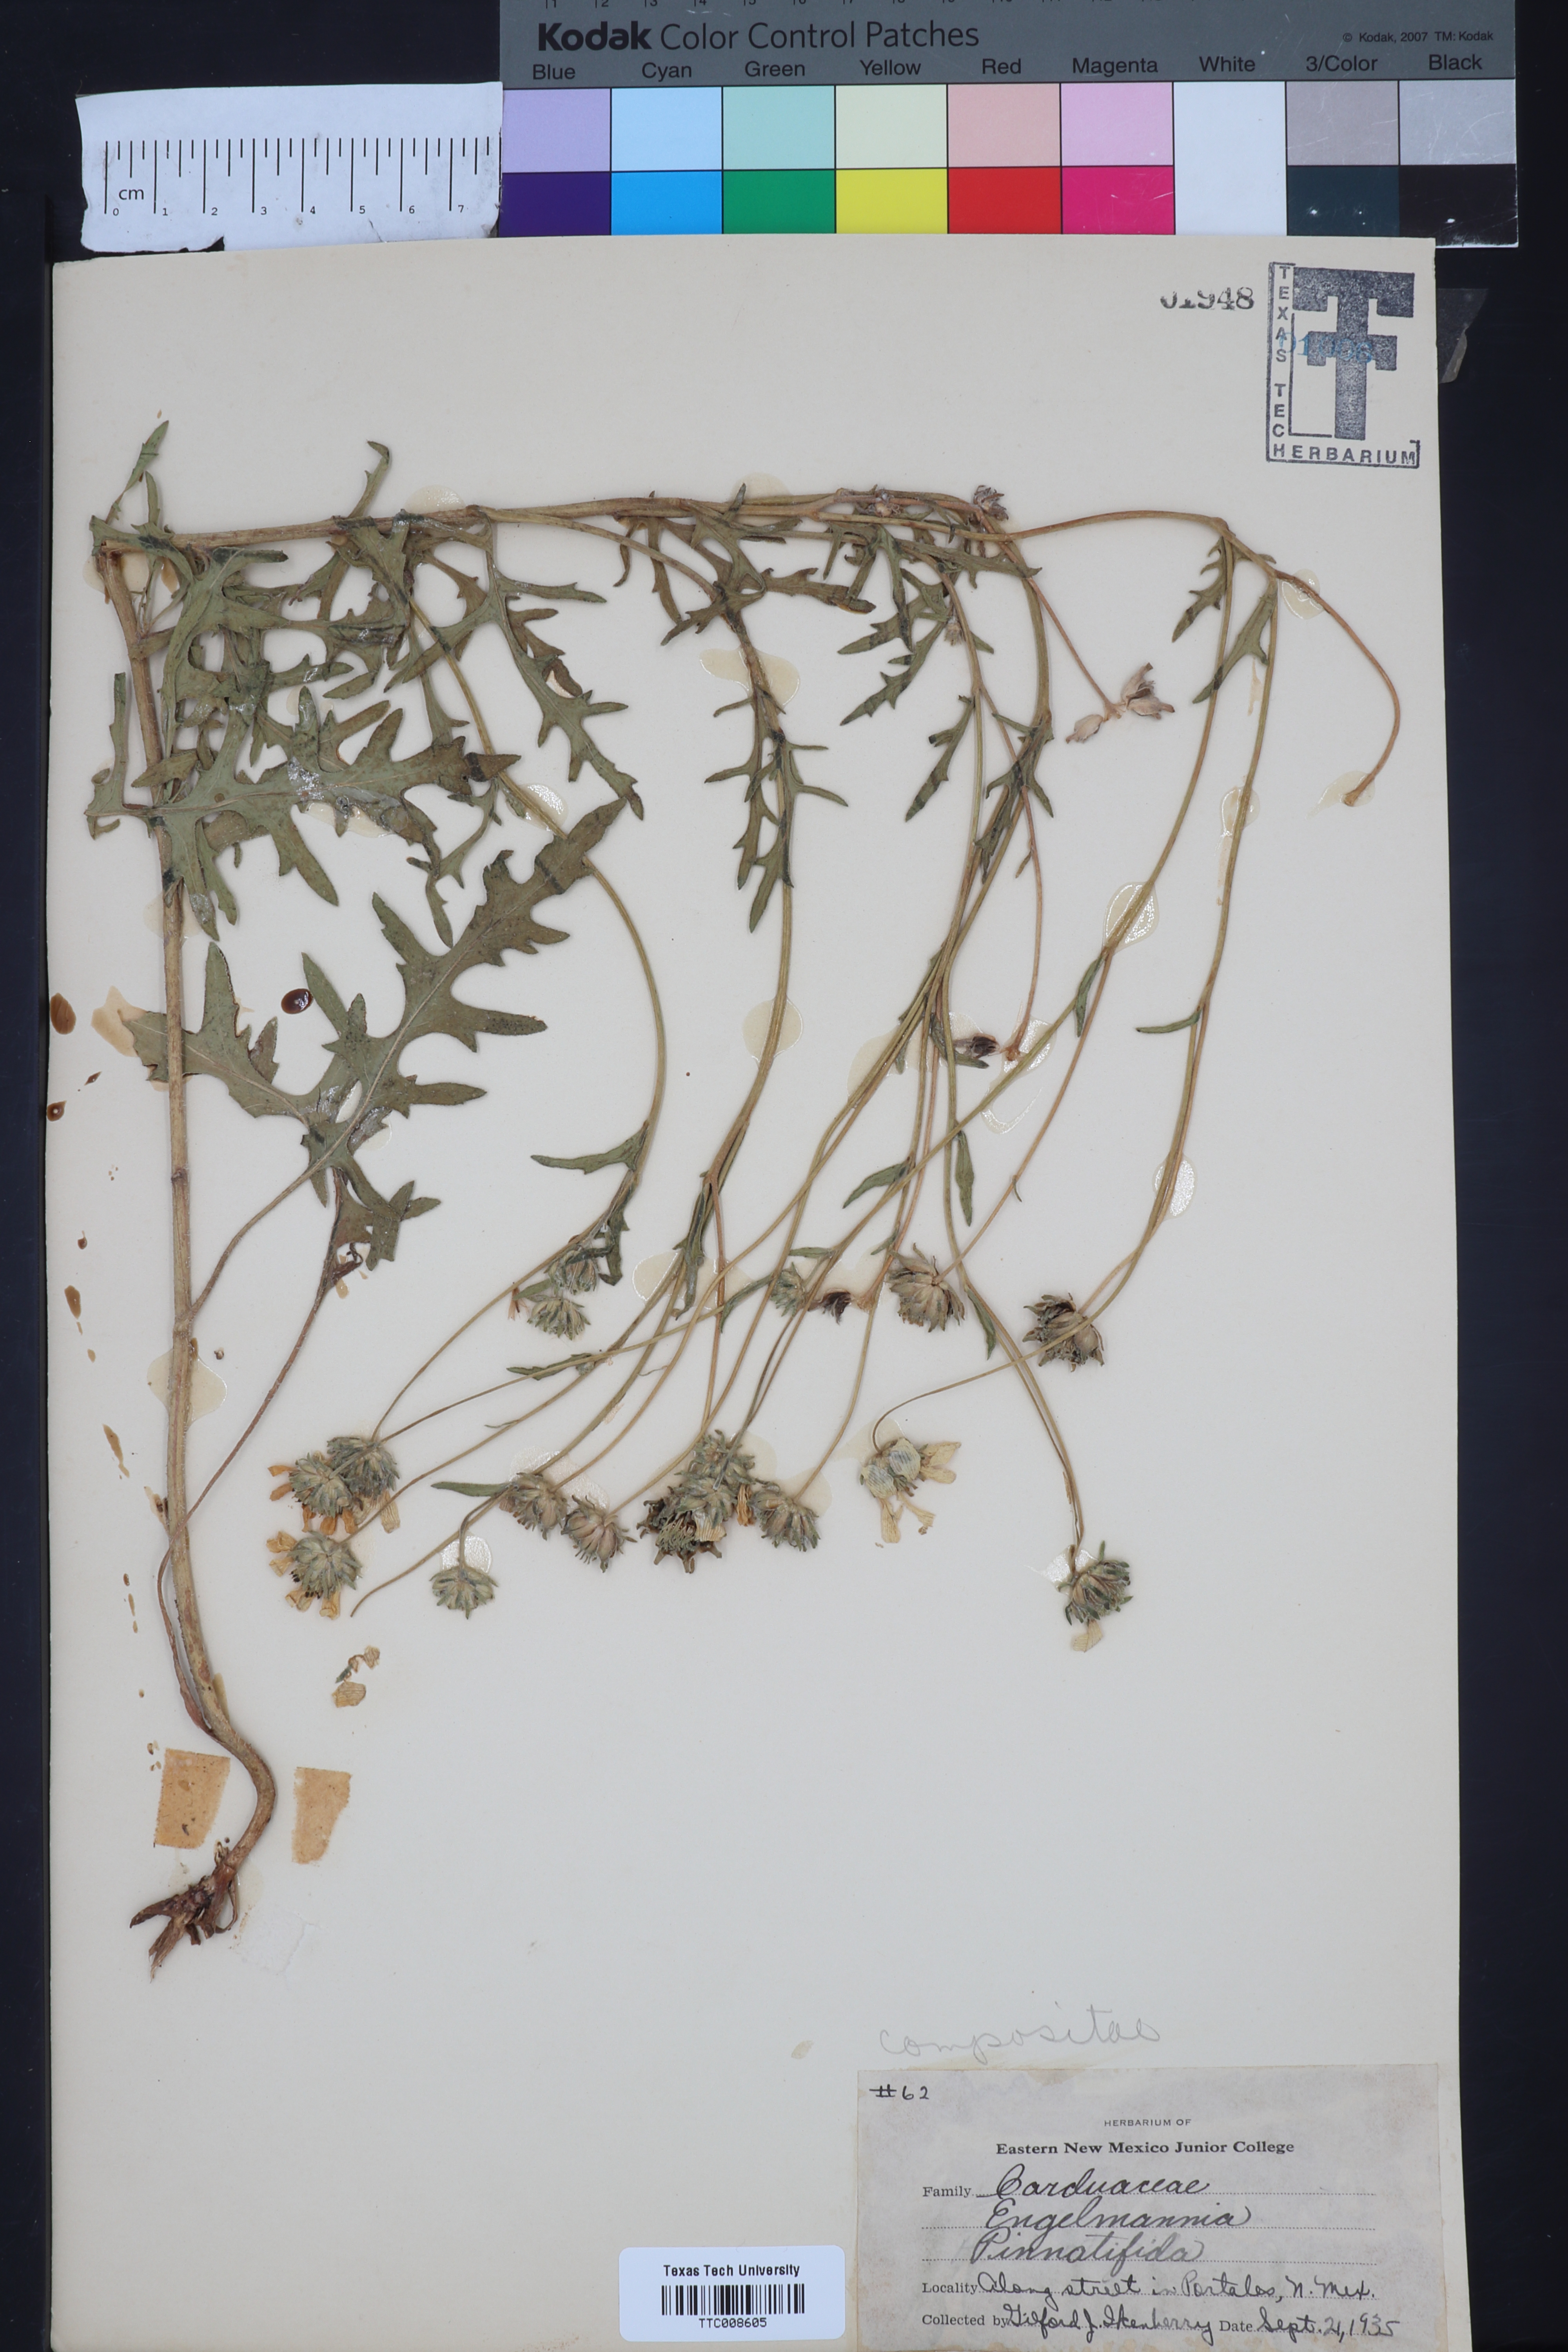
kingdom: Plantae
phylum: Tracheophyta
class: Magnoliopsida
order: Asterales
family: Asteraceae
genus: Engelmannia
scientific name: Engelmannia peristenia
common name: Engelmann's daisy
